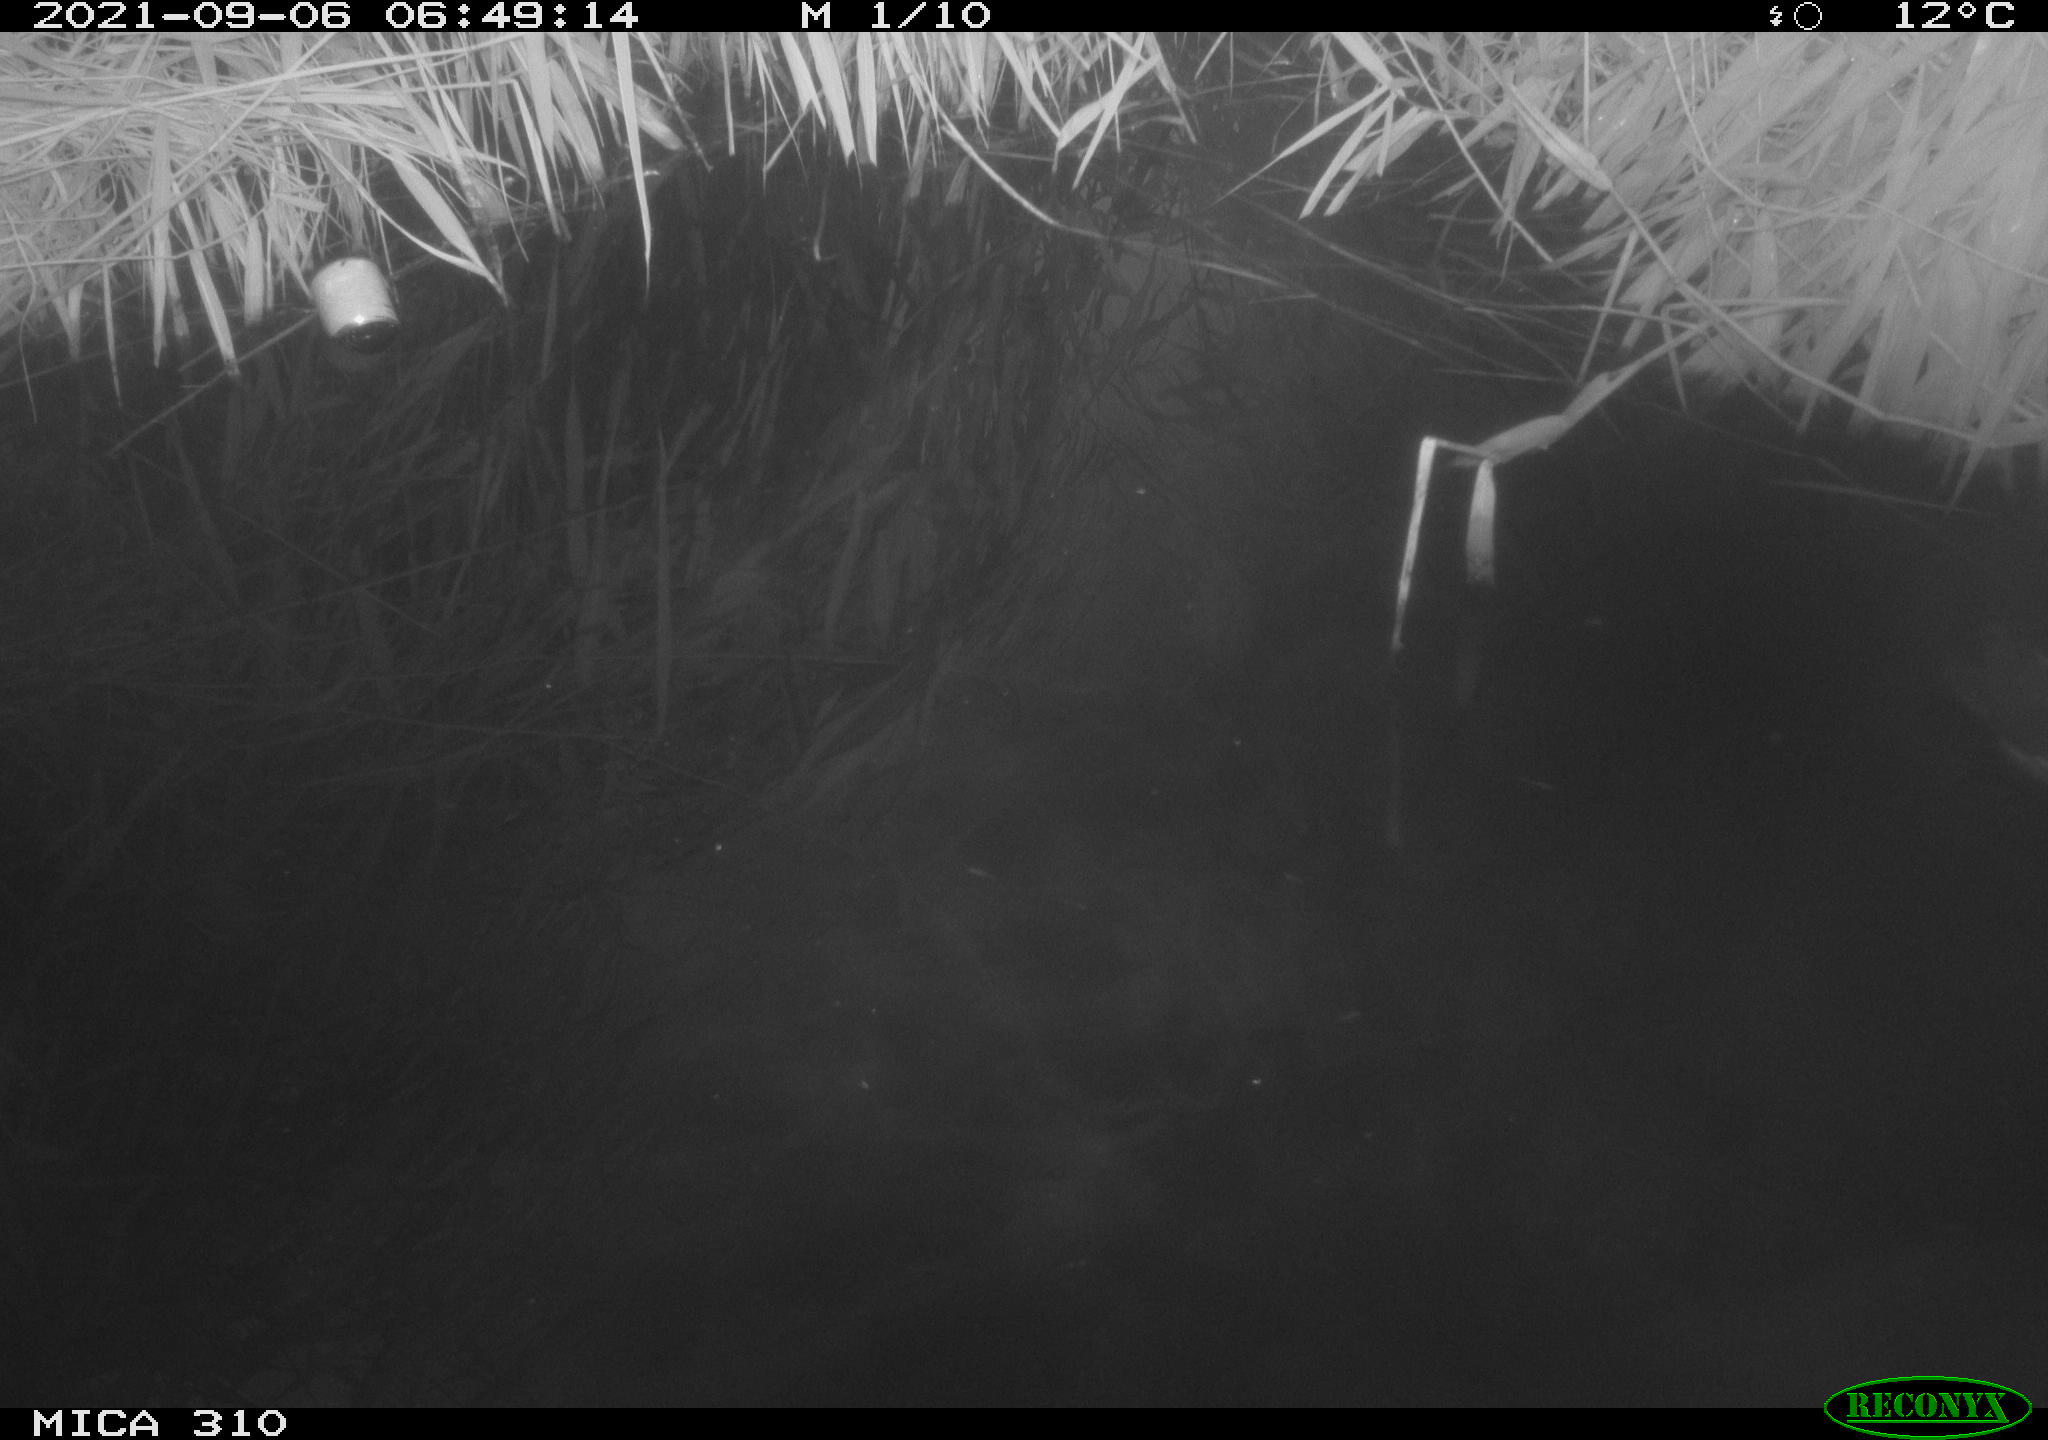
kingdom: Animalia
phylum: Chordata
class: Aves
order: Anseriformes
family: Anatidae
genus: Anas
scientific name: Anas platyrhynchos
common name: Mallard
